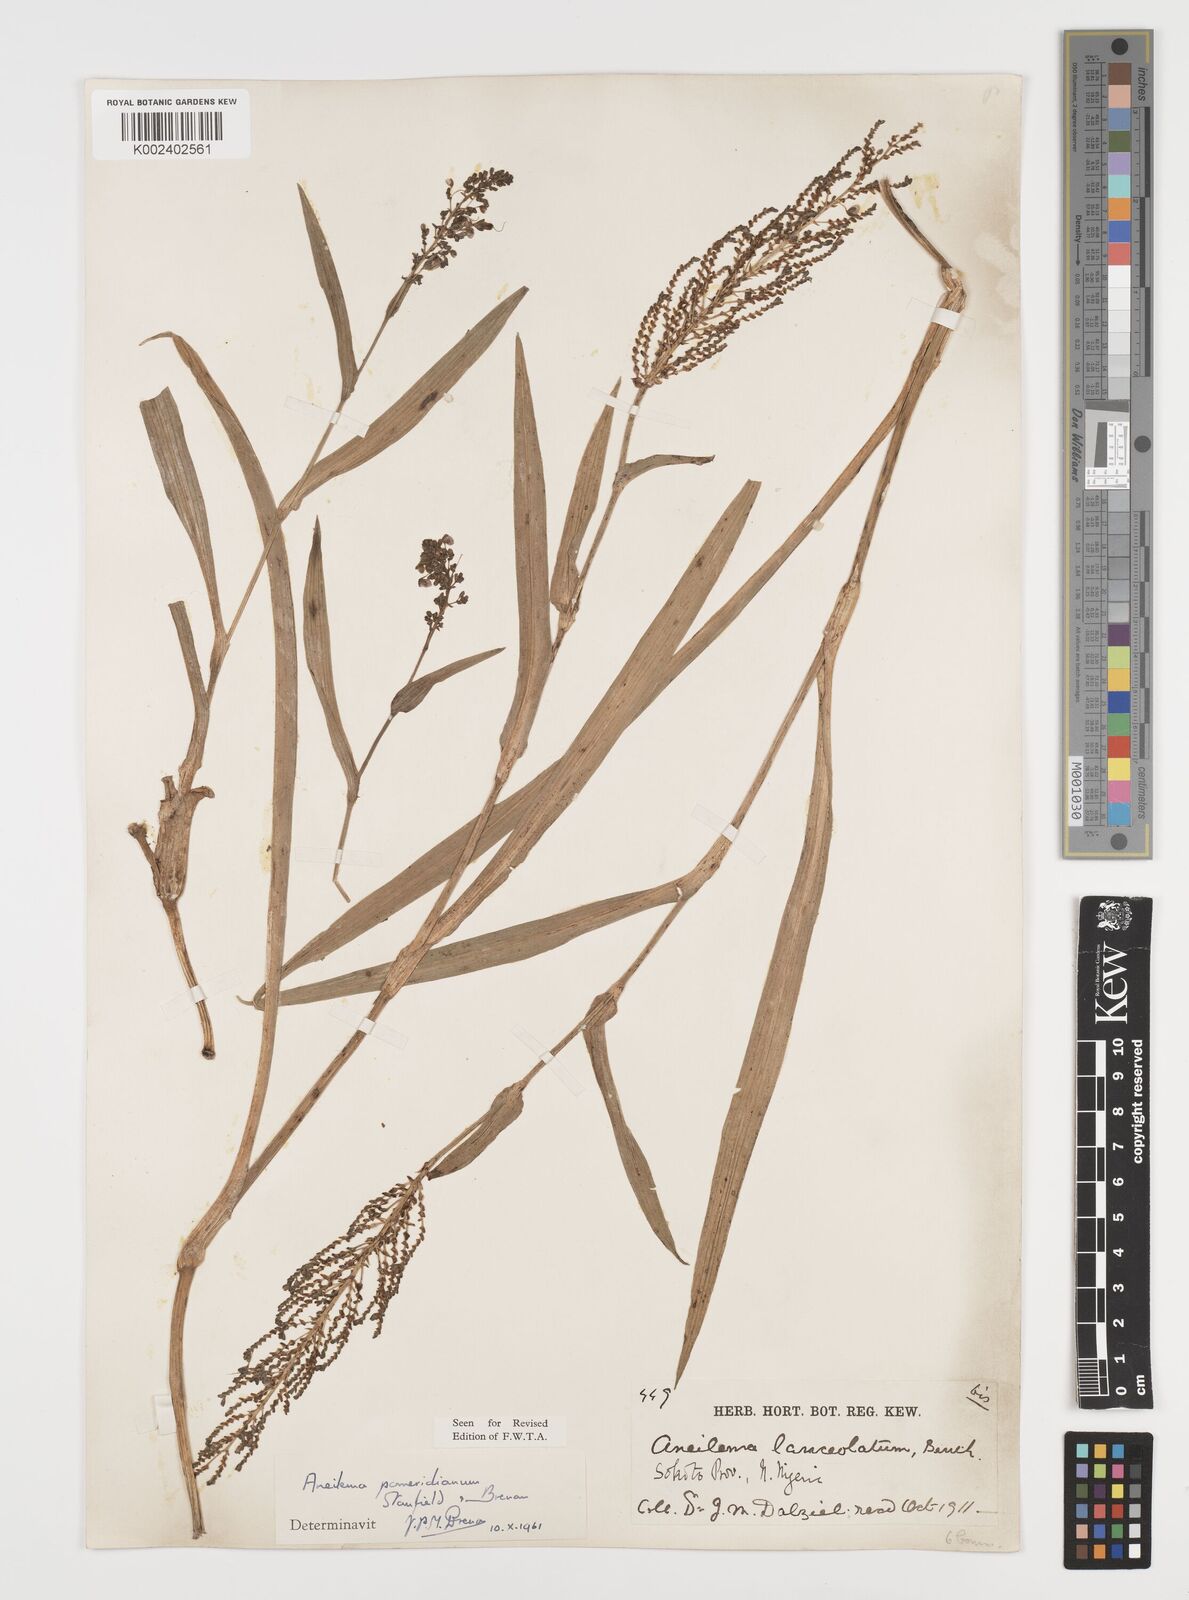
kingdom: Plantae
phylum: Tracheophyta
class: Liliopsida
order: Commelinales
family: Commelinaceae
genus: Aneilema
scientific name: Aneilema pomeridianum
